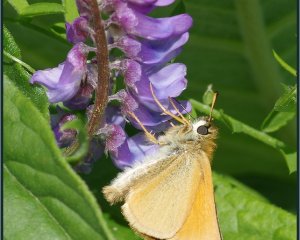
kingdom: Animalia
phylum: Arthropoda
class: Insecta
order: Lepidoptera
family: Hesperiidae
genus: Thymelicus
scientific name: Thymelicus lineola
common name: European Skipper
